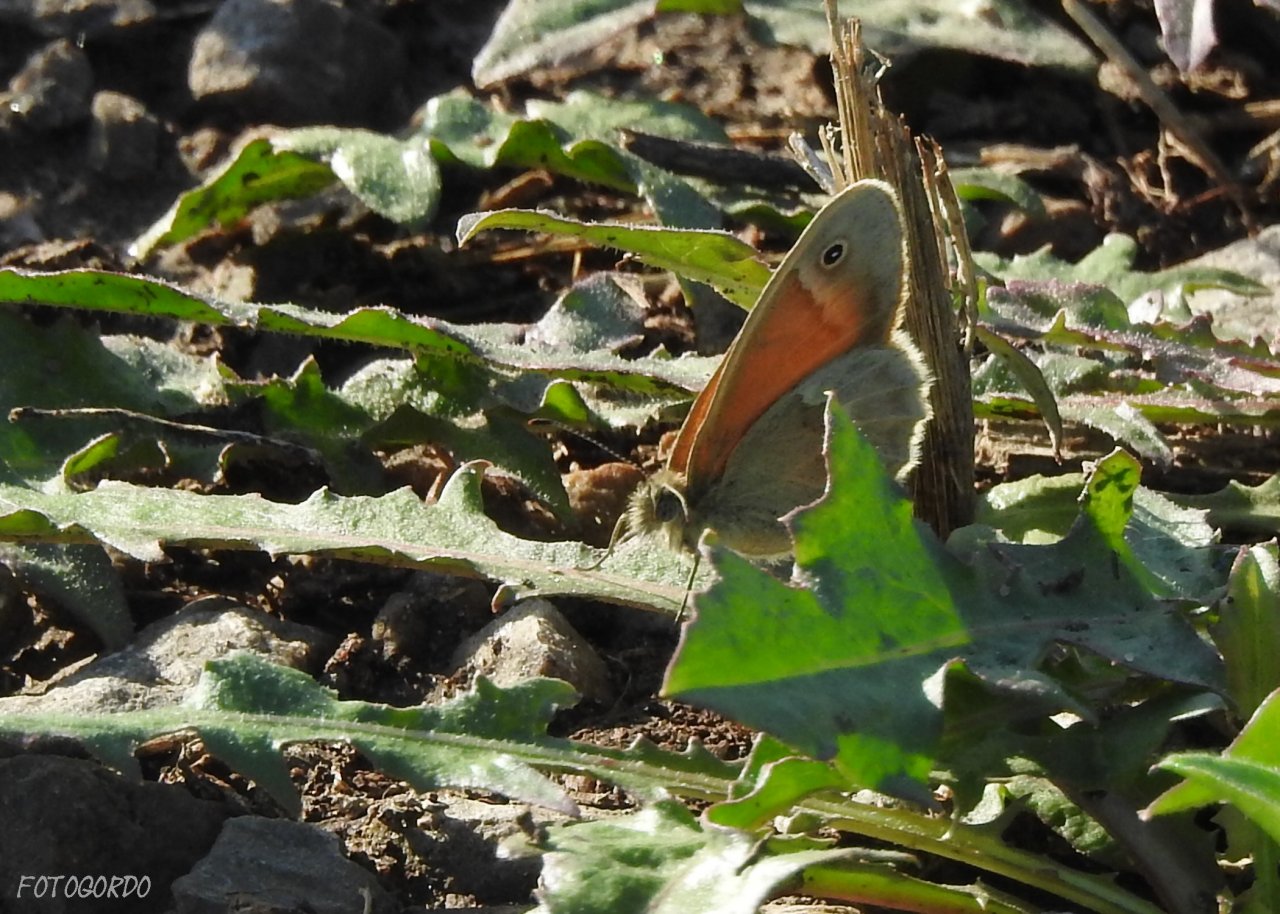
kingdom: Animalia
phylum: Arthropoda
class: Insecta
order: Lepidoptera
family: Nymphalidae
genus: Coenonympha
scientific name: Coenonympha tullia
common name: Large Heath
